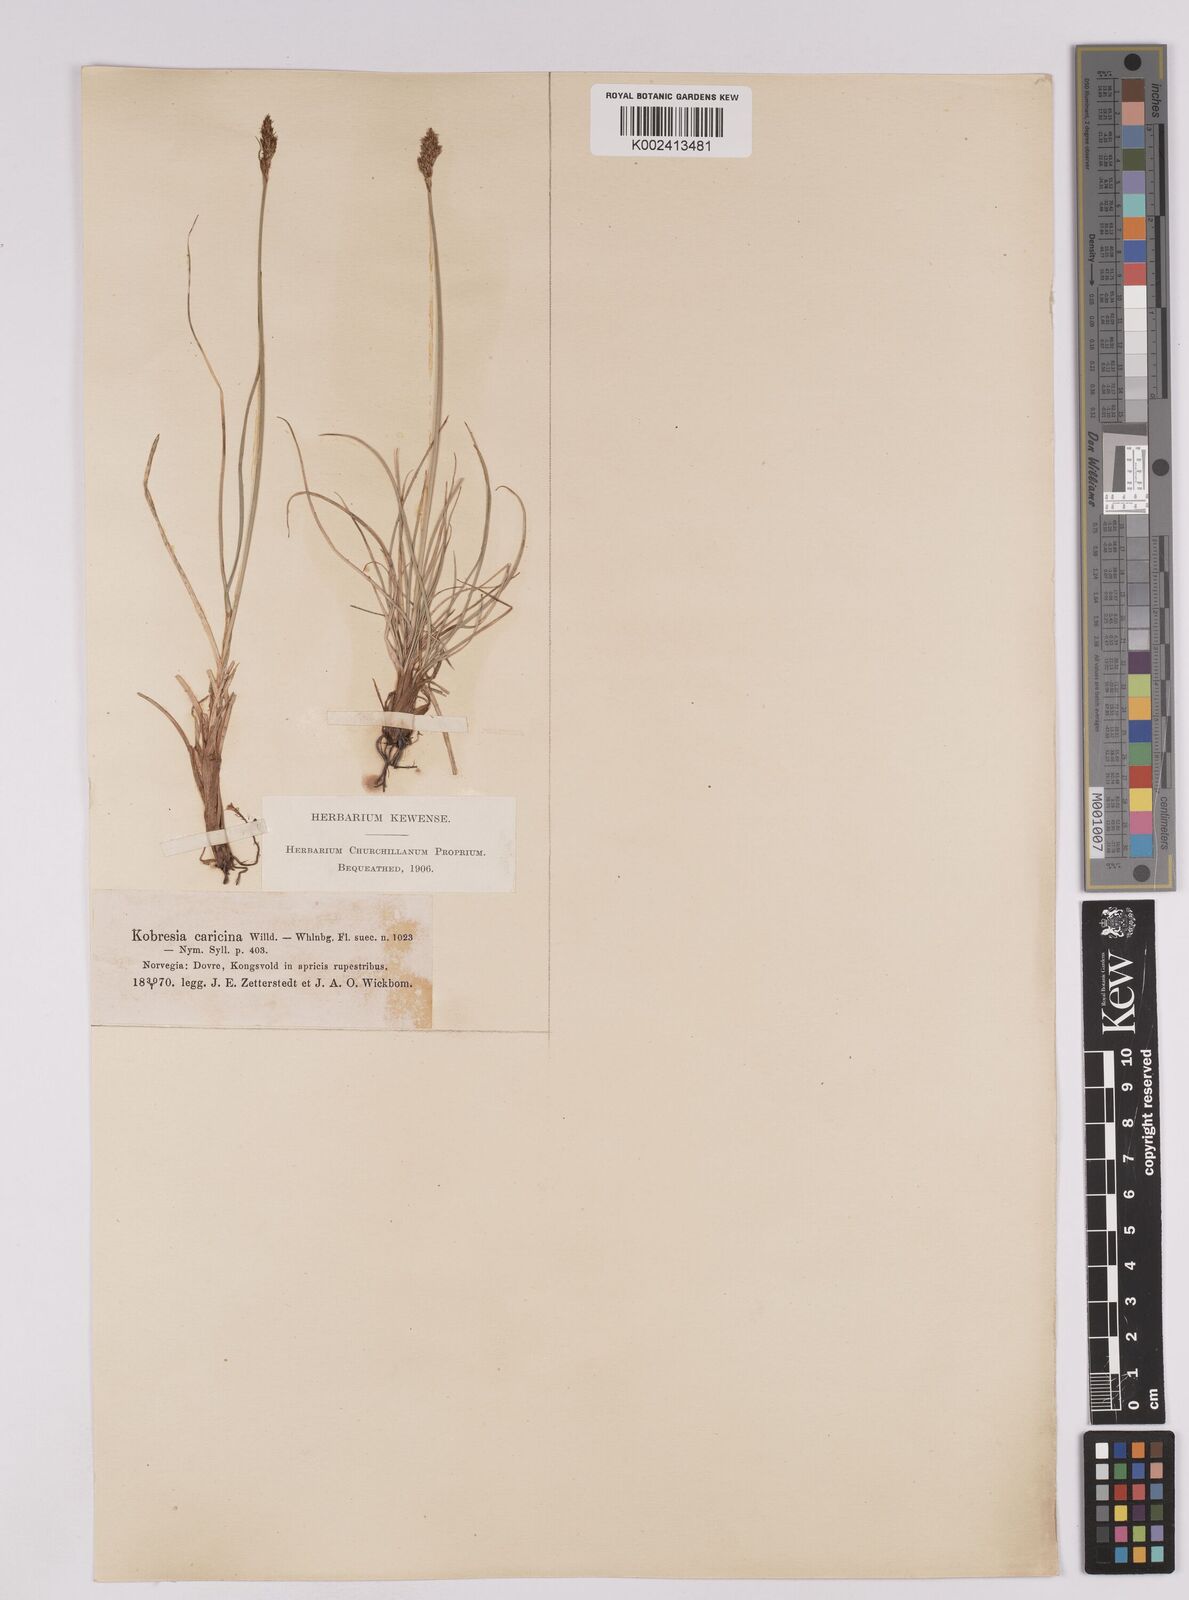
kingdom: Plantae
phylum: Tracheophyta
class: Liliopsida
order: Poales
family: Cyperaceae
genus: Carex
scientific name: Carex simpliciuscula
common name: Simple bog sedge
